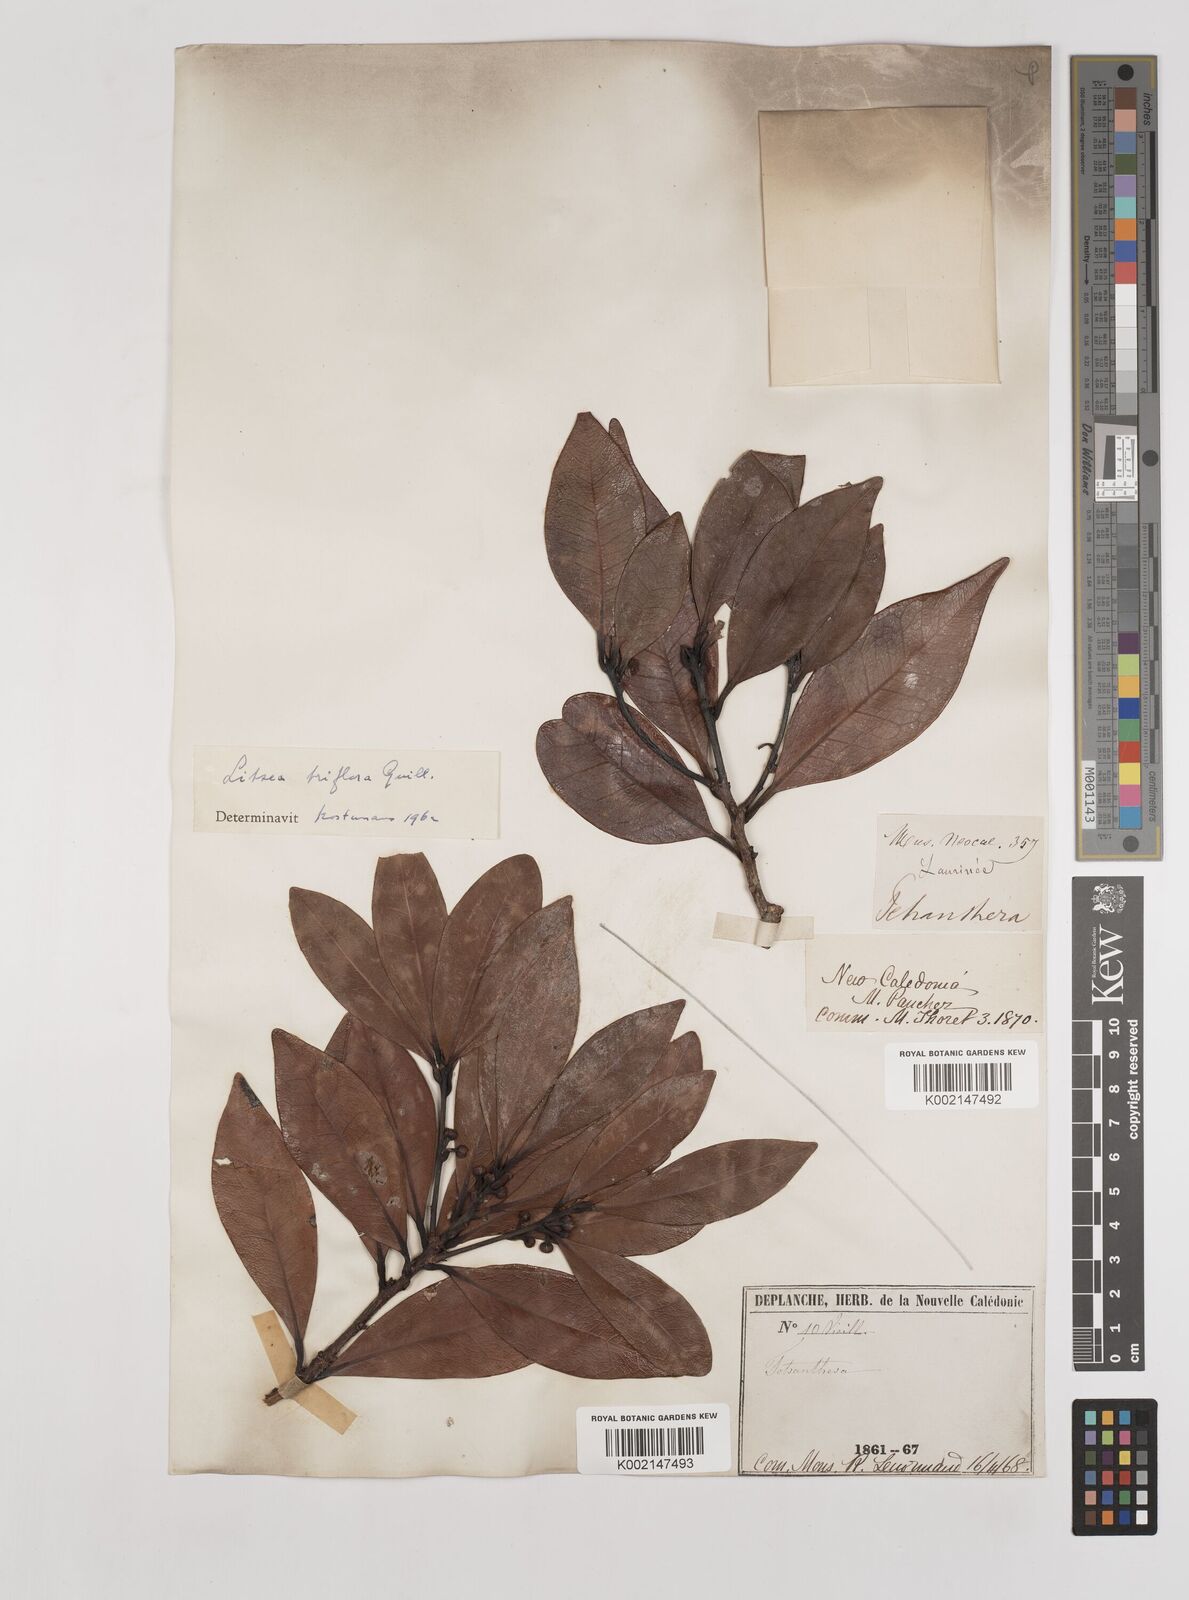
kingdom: Plantae
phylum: Tracheophyta
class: Magnoliopsida
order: Laurales
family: Lauraceae
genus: Litsea
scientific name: Litsea triflora
